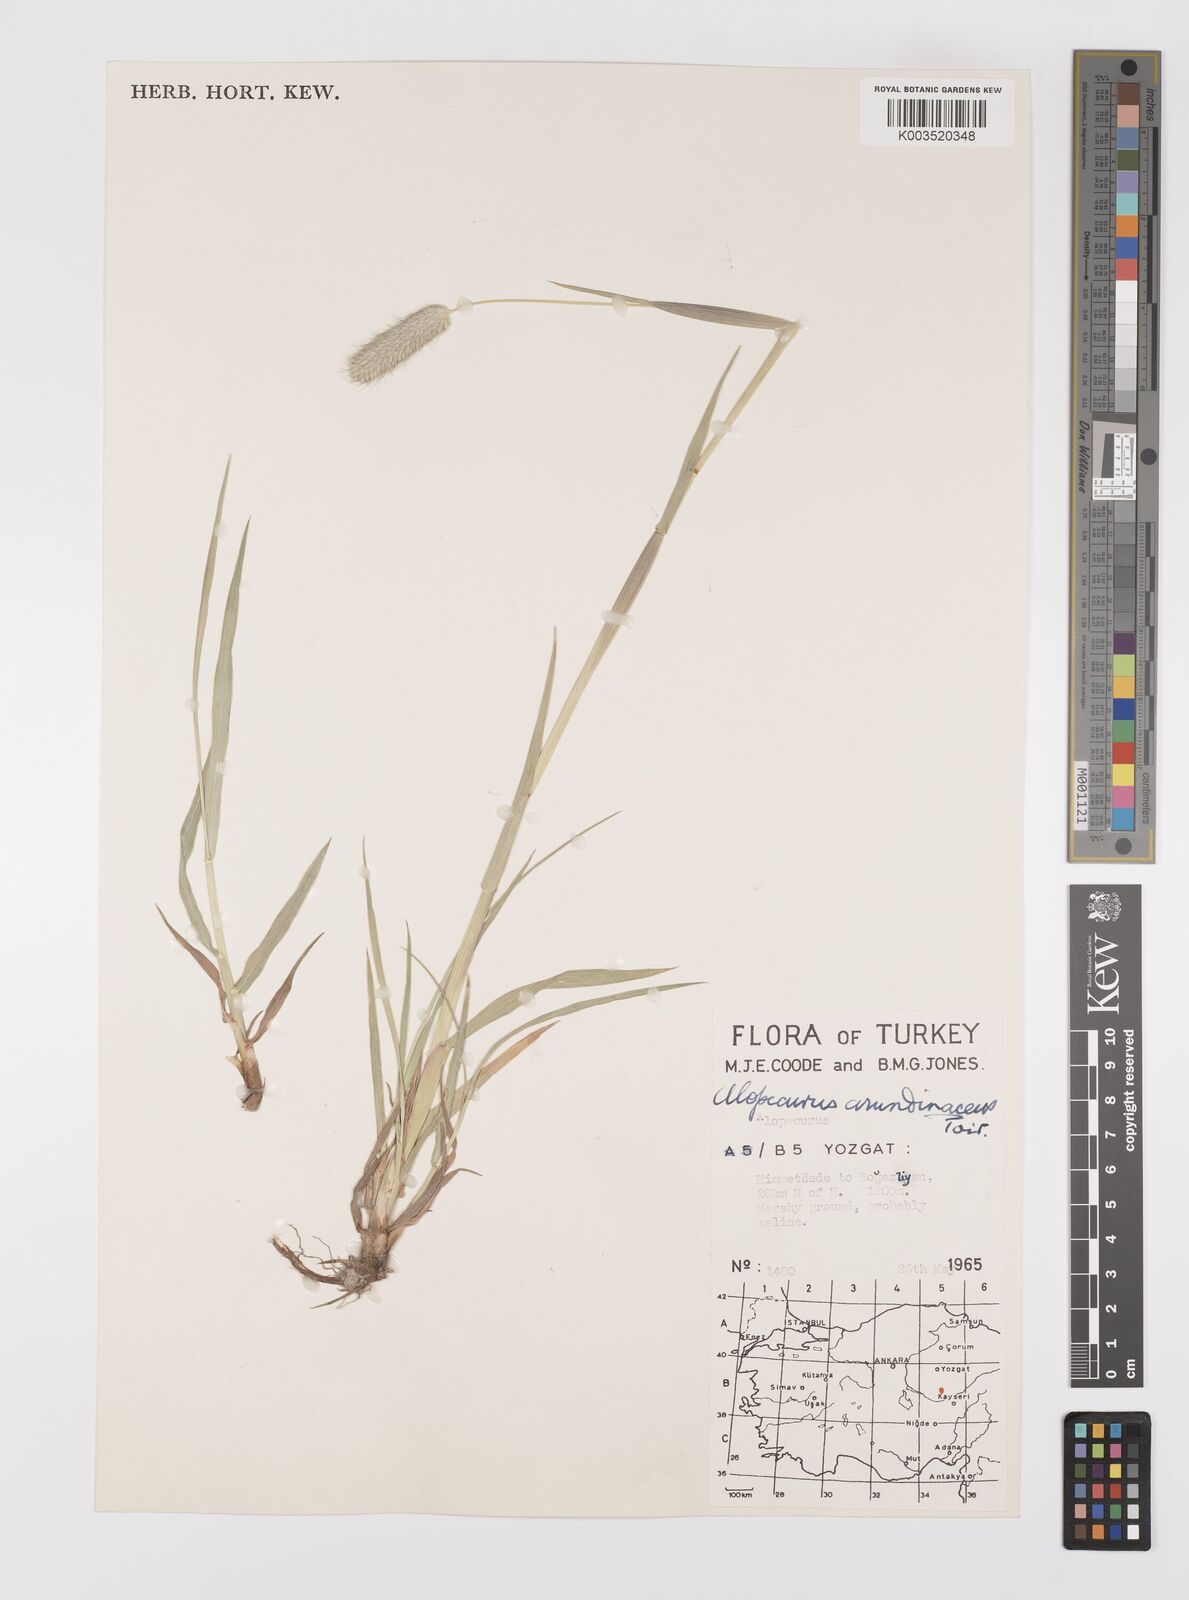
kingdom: Plantae
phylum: Tracheophyta
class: Liliopsida
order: Poales
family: Poaceae
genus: Alopecurus
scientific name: Alopecurus arundinaceus
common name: Creeping meadow foxtail
